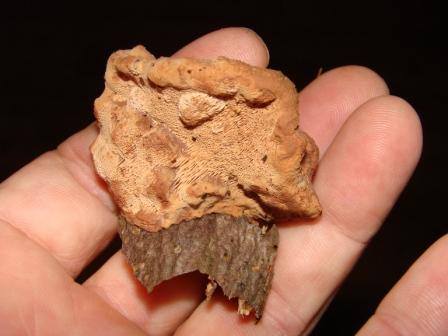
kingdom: Fungi
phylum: Basidiomycota
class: Agaricomycetes
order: Polyporales
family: Phanerochaetaceae
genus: Hapalopilus
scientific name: Hapalopilus rutilans
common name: rødlig okkerporesvamp
